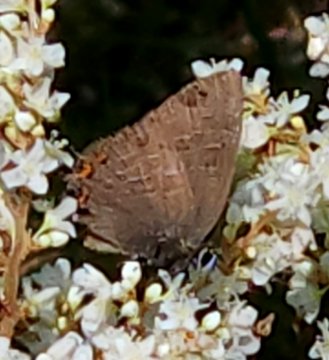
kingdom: Animalia
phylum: Arthropoda
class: Insecta
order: Lepidoptera
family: Lycaenidae
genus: Satyrium
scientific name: Satyrium liparops
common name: Striped Hairstreak
